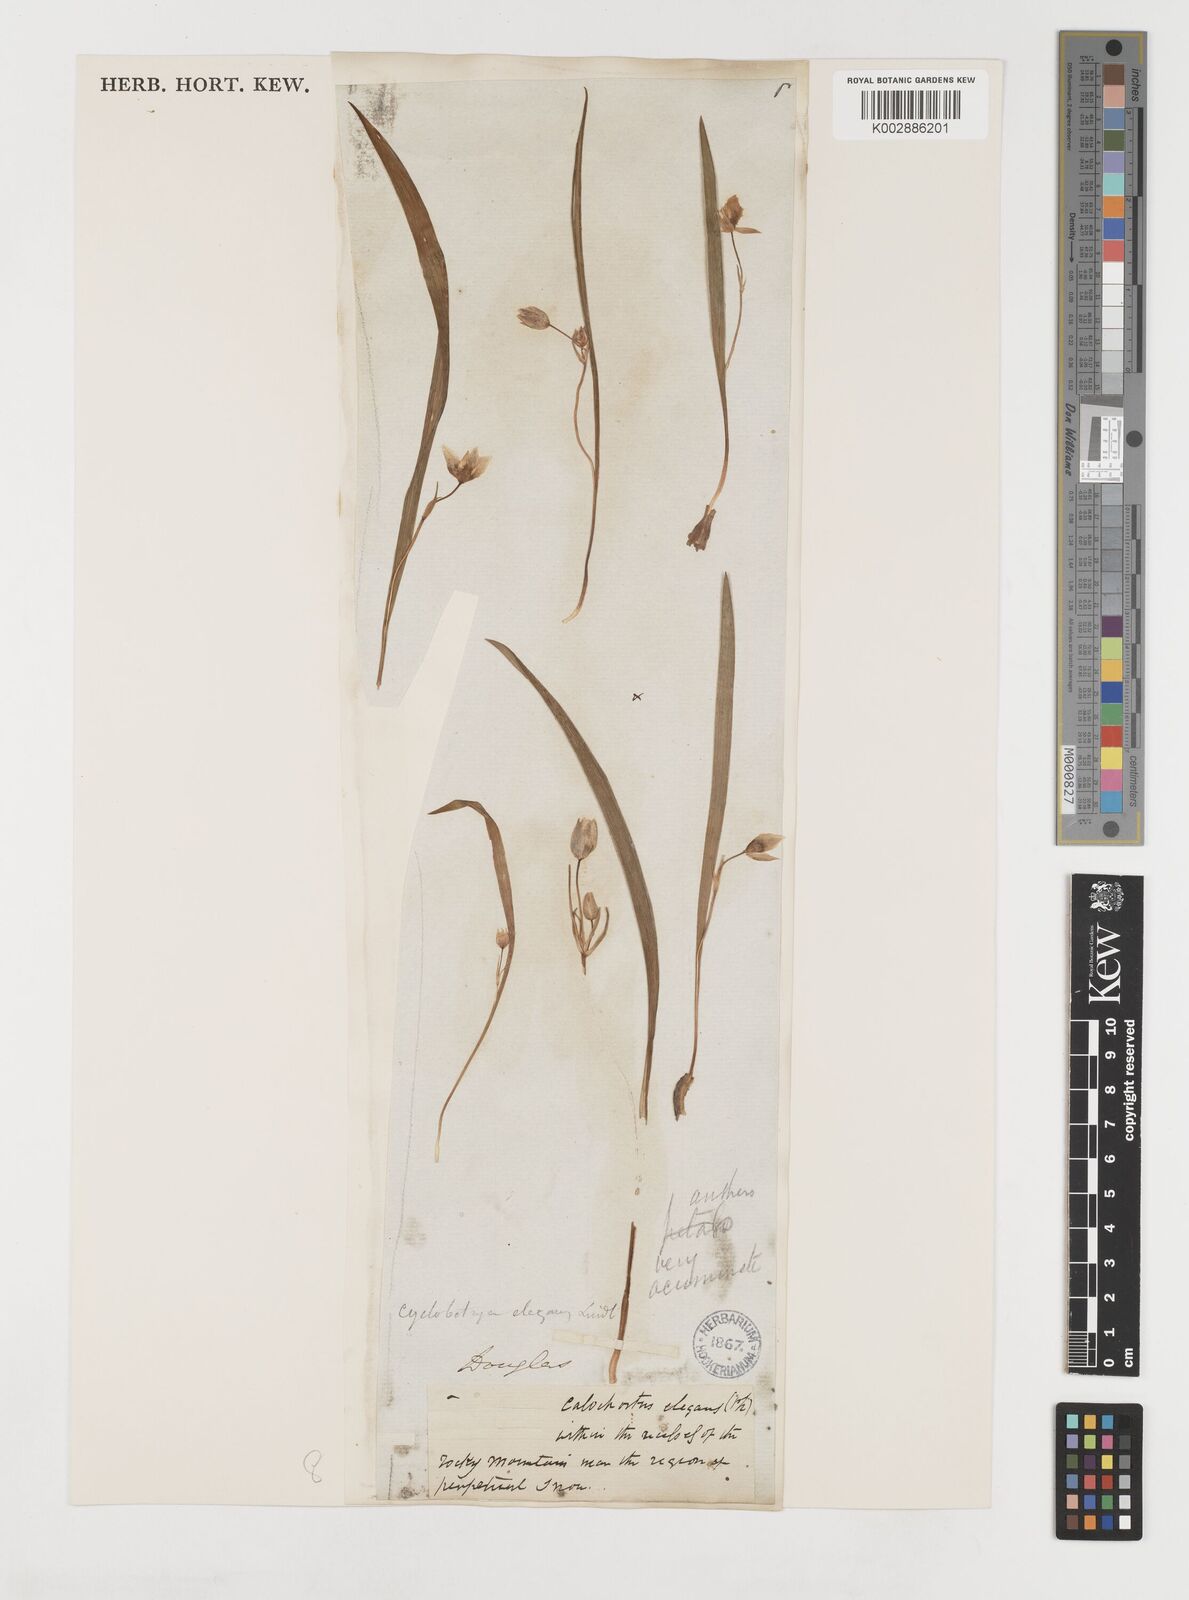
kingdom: Plantae
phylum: Tracheophyta
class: Liliopsida
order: Liliales
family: Liliaceae
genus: Calochortus
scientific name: Calochortus elegans
